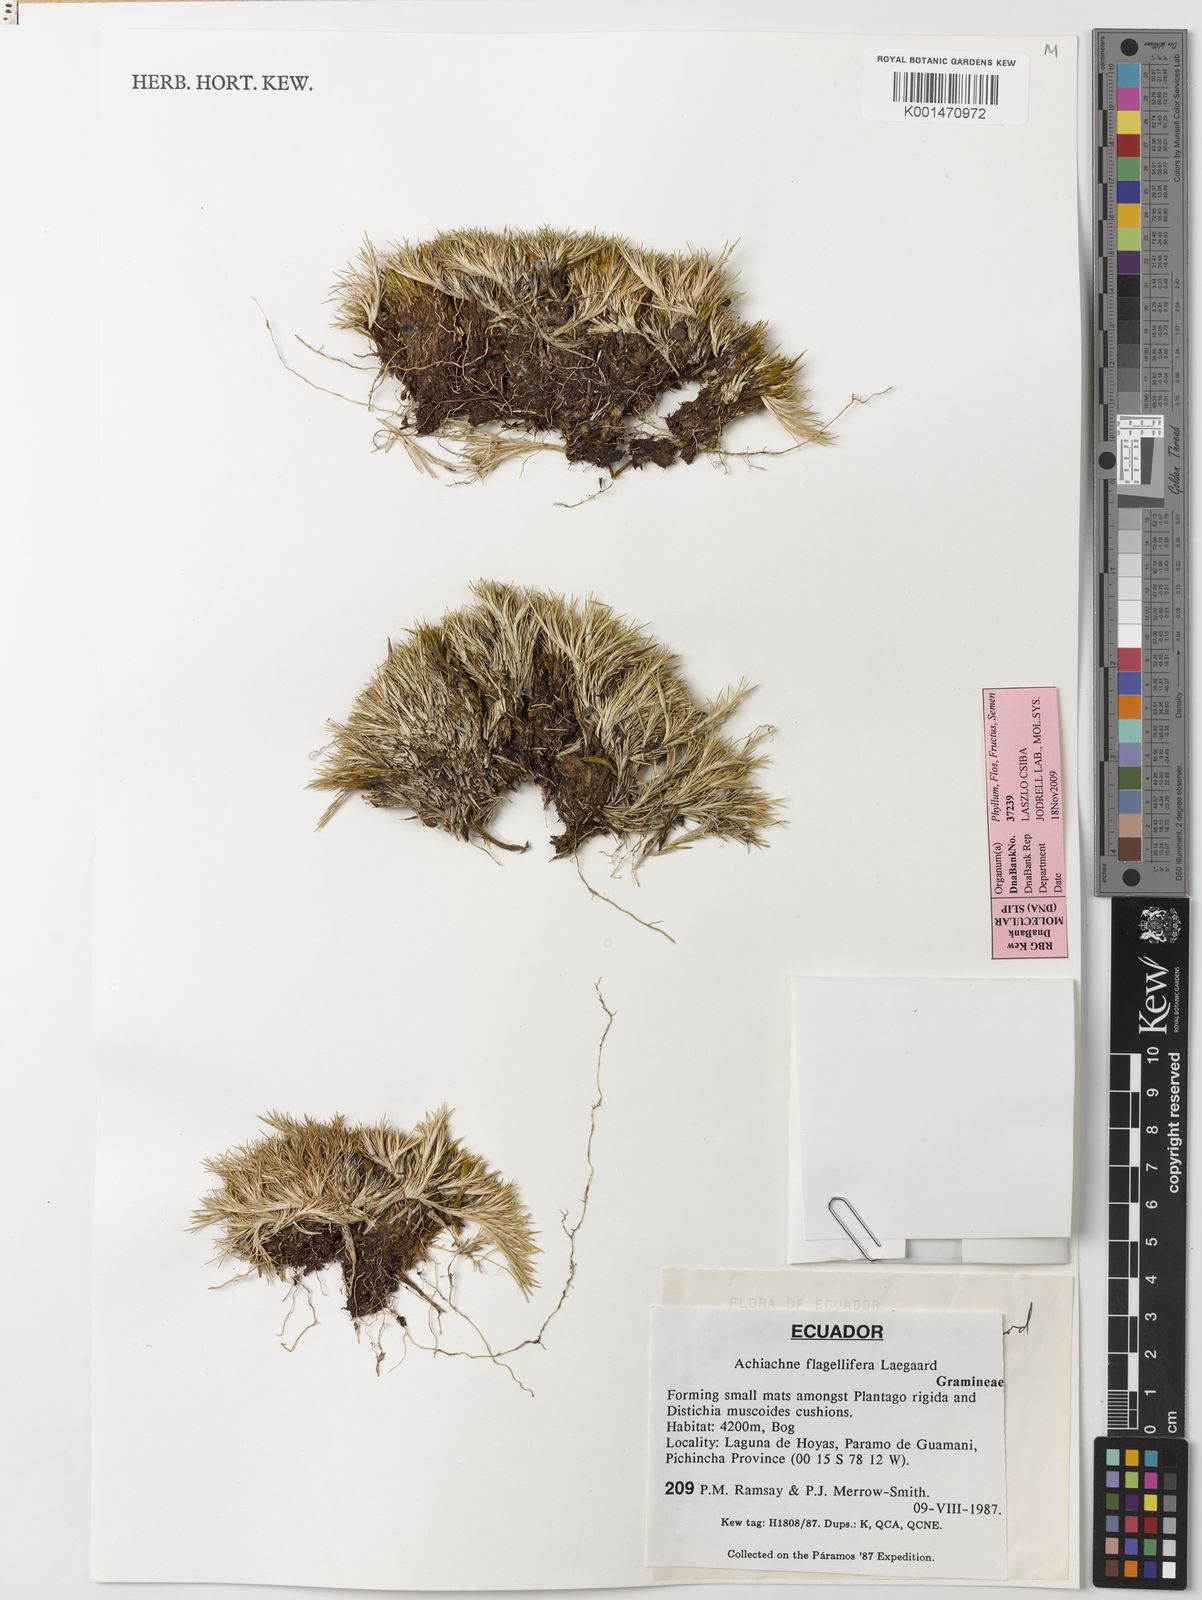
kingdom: Plantae
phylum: Tracheophyta
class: Liliopsida
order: Poales
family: Poaceae
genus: Aciachne
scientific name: Aciachne flagellifera
